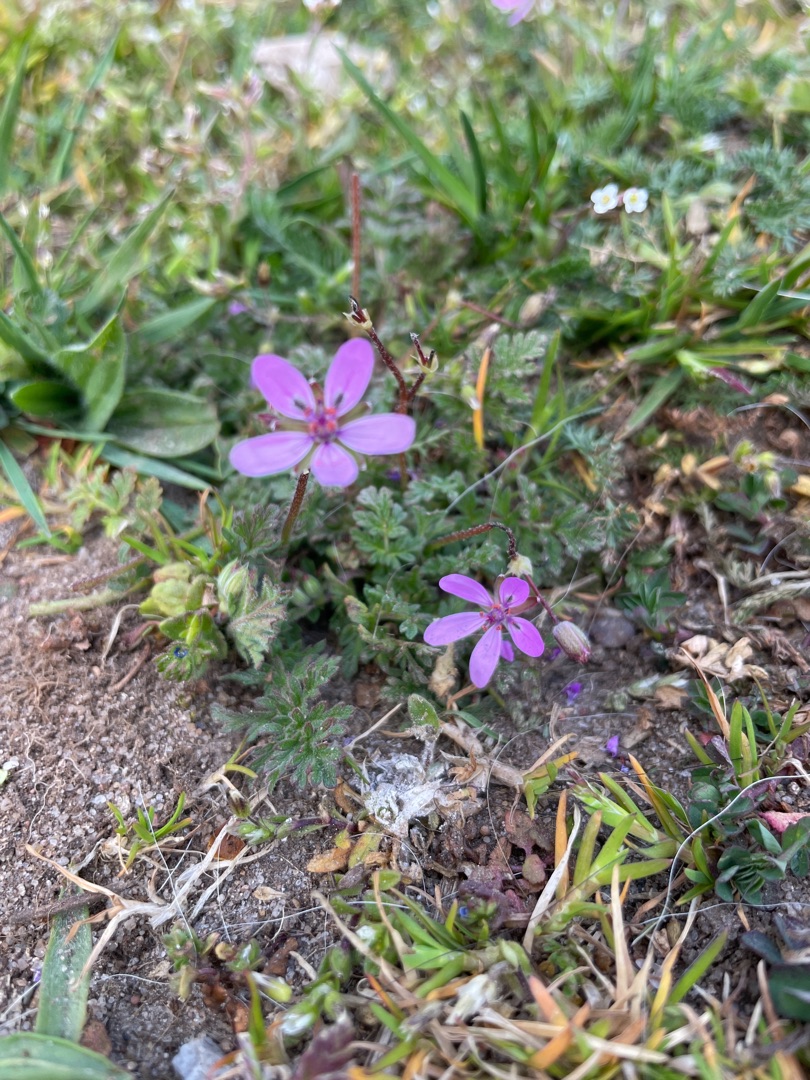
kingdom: Plantae
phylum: Tracheophyta
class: Magnoliopsida
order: Geraniales
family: Geraniaceae
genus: Erodium
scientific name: Erodium cicutarium
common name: Hejrenæb
